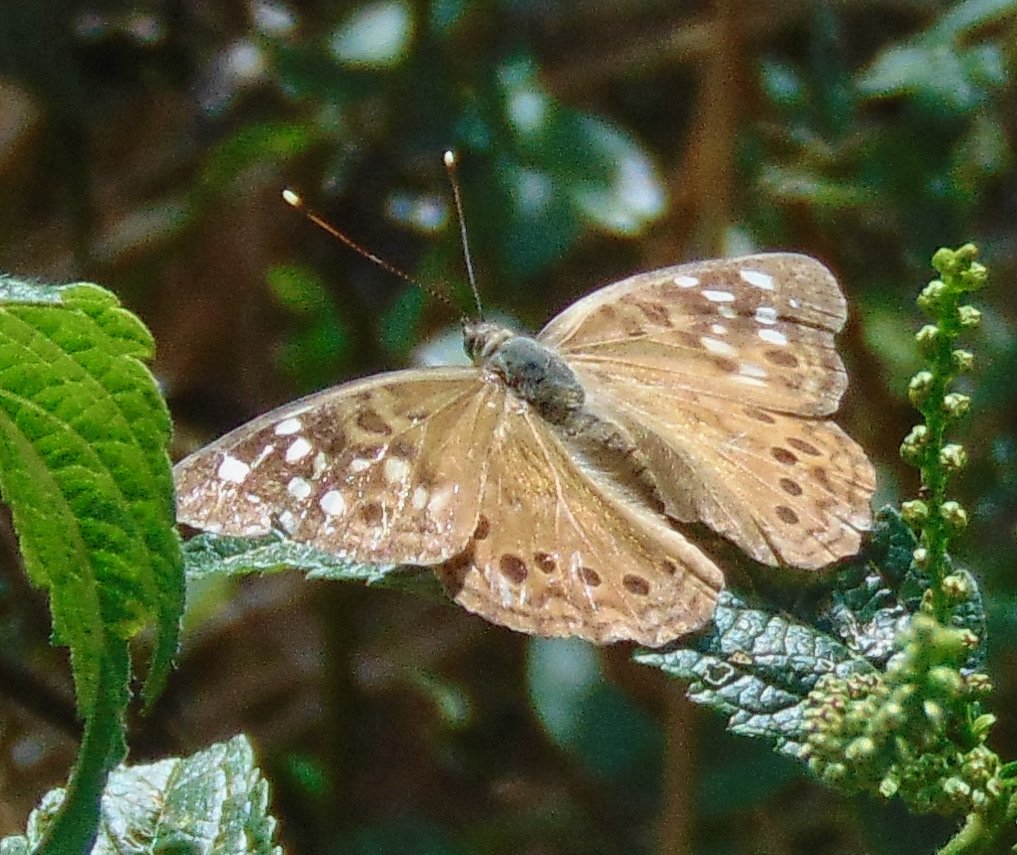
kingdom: Animalia
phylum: Arthropoda
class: Insecta
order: Lepidoptera
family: Nymphalidae
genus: Asterocampa
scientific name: Asterocampa celtis
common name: Hackberry Emperor
